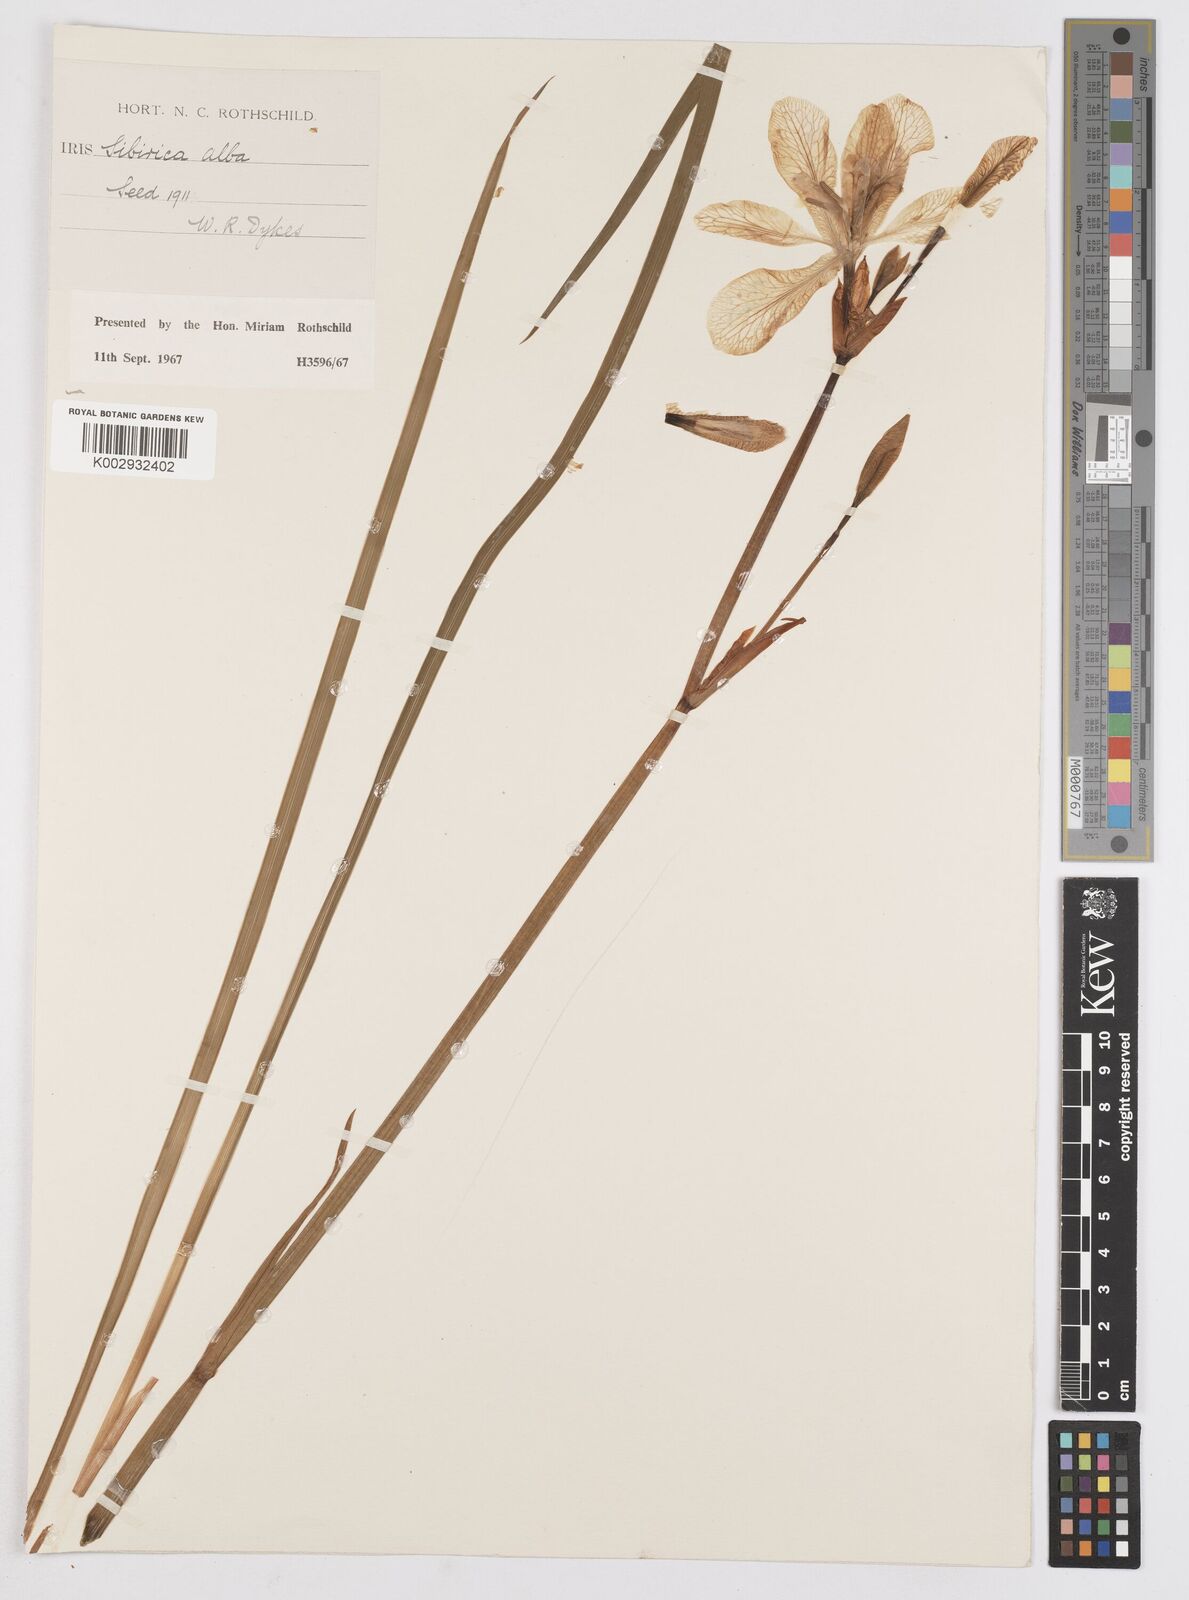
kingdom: Plantae
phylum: Tracheophyta
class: Liliopsida
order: Asparagales
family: Iridaceae
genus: Iris
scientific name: Iris sibirica
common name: Siberian iris
